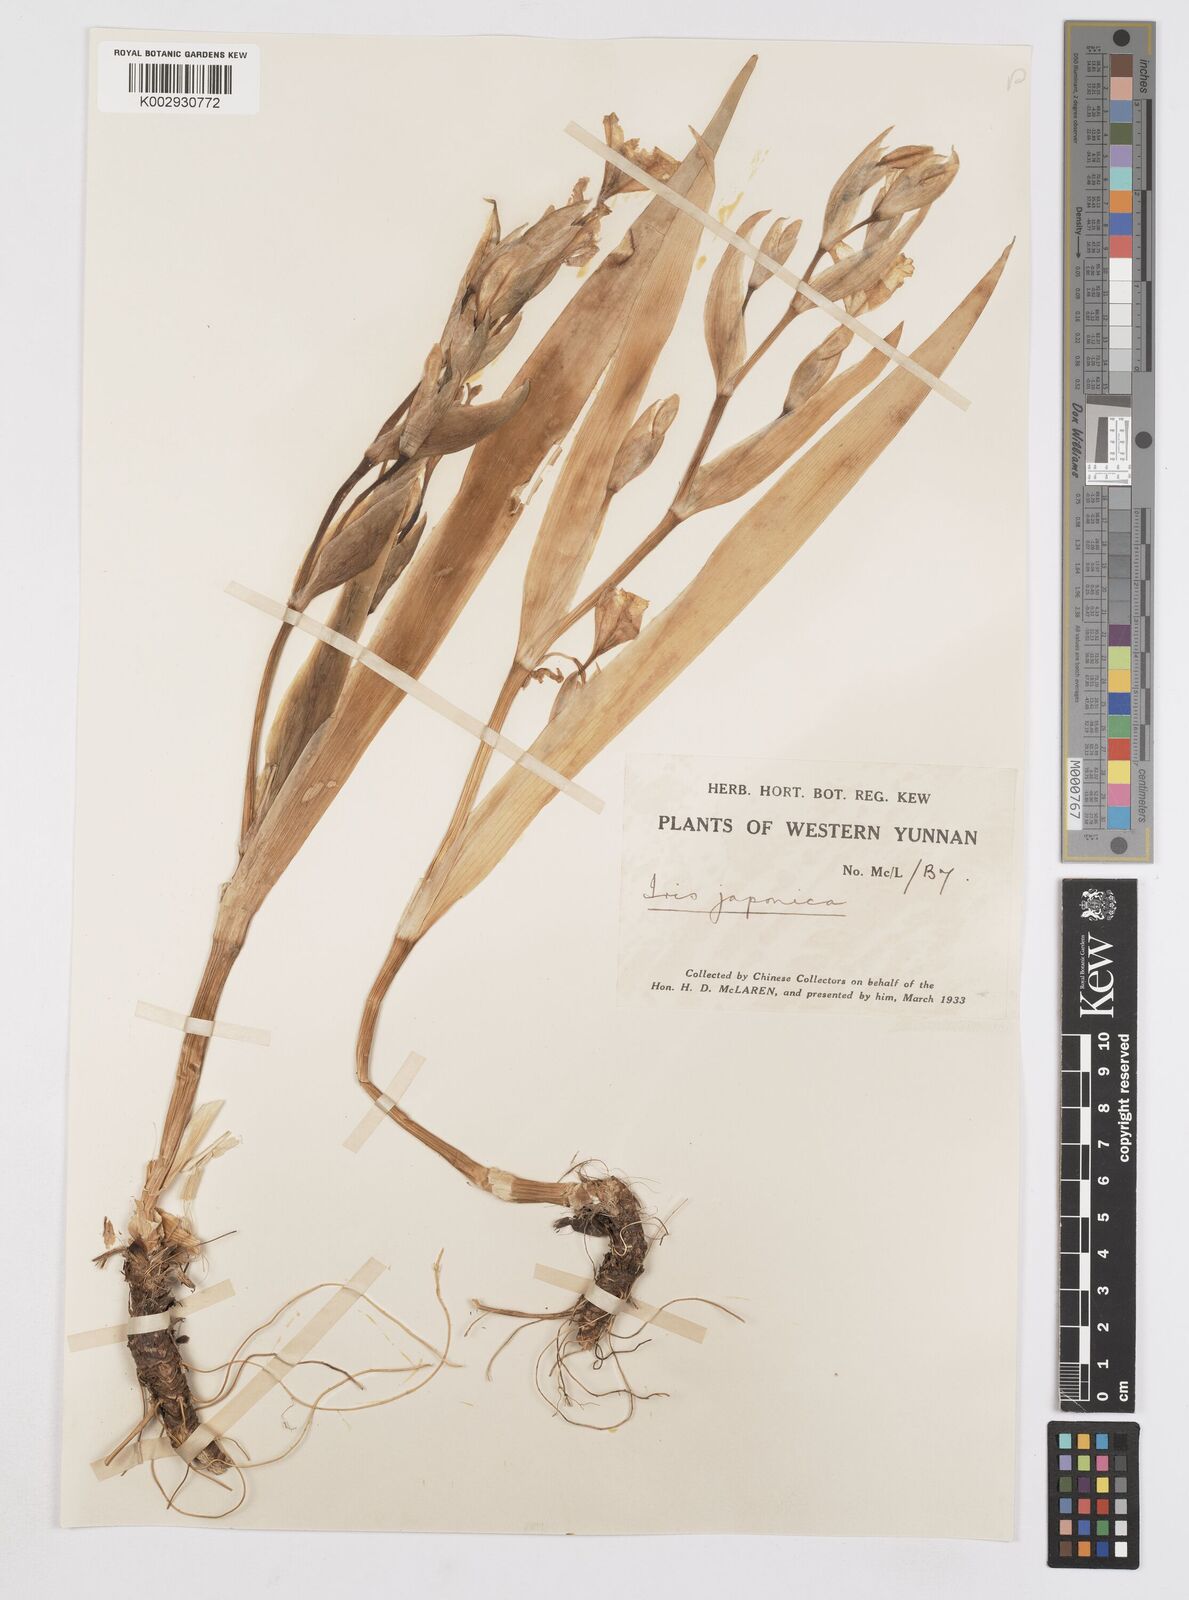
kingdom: Plantae
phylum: Tracheophyta
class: Liliopsida
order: Asparagales
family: Iridaceae
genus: Iris
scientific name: Iris japonica
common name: Butterfly-flower
